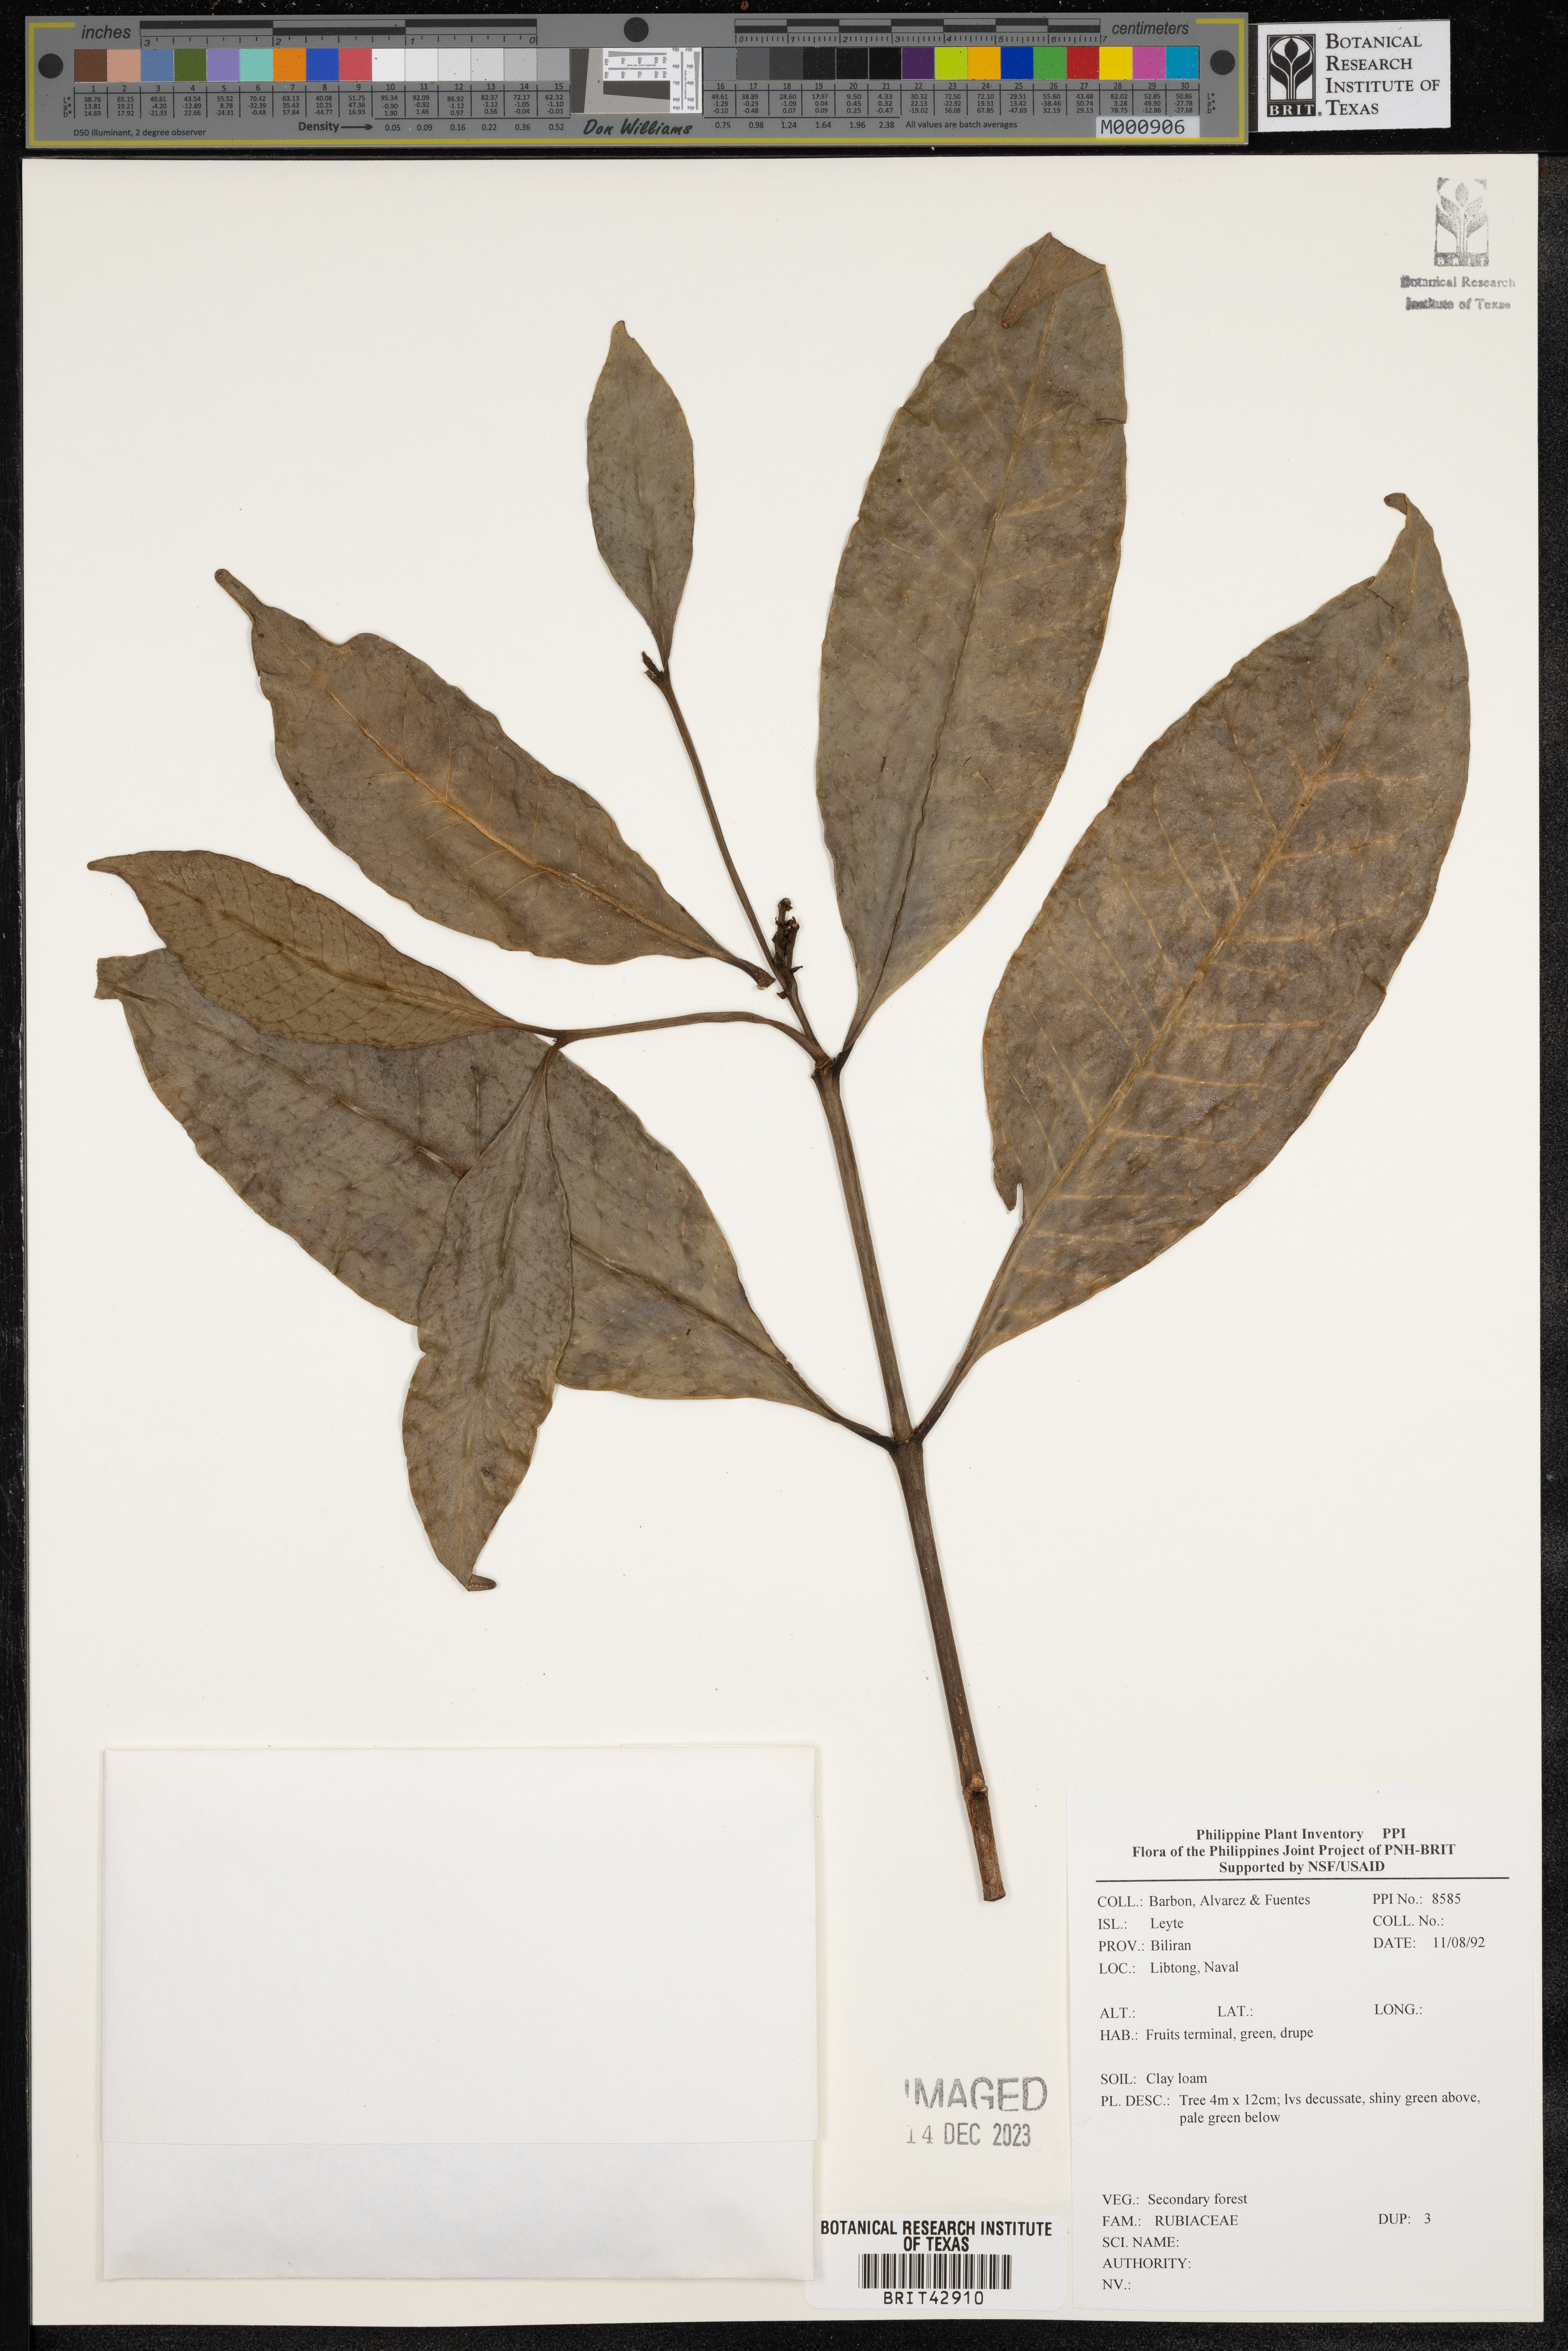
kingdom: Plantae
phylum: Tracheophyta
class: Magnoliopsida
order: Gentianales
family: Rubiaceae
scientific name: Rubiaceae
